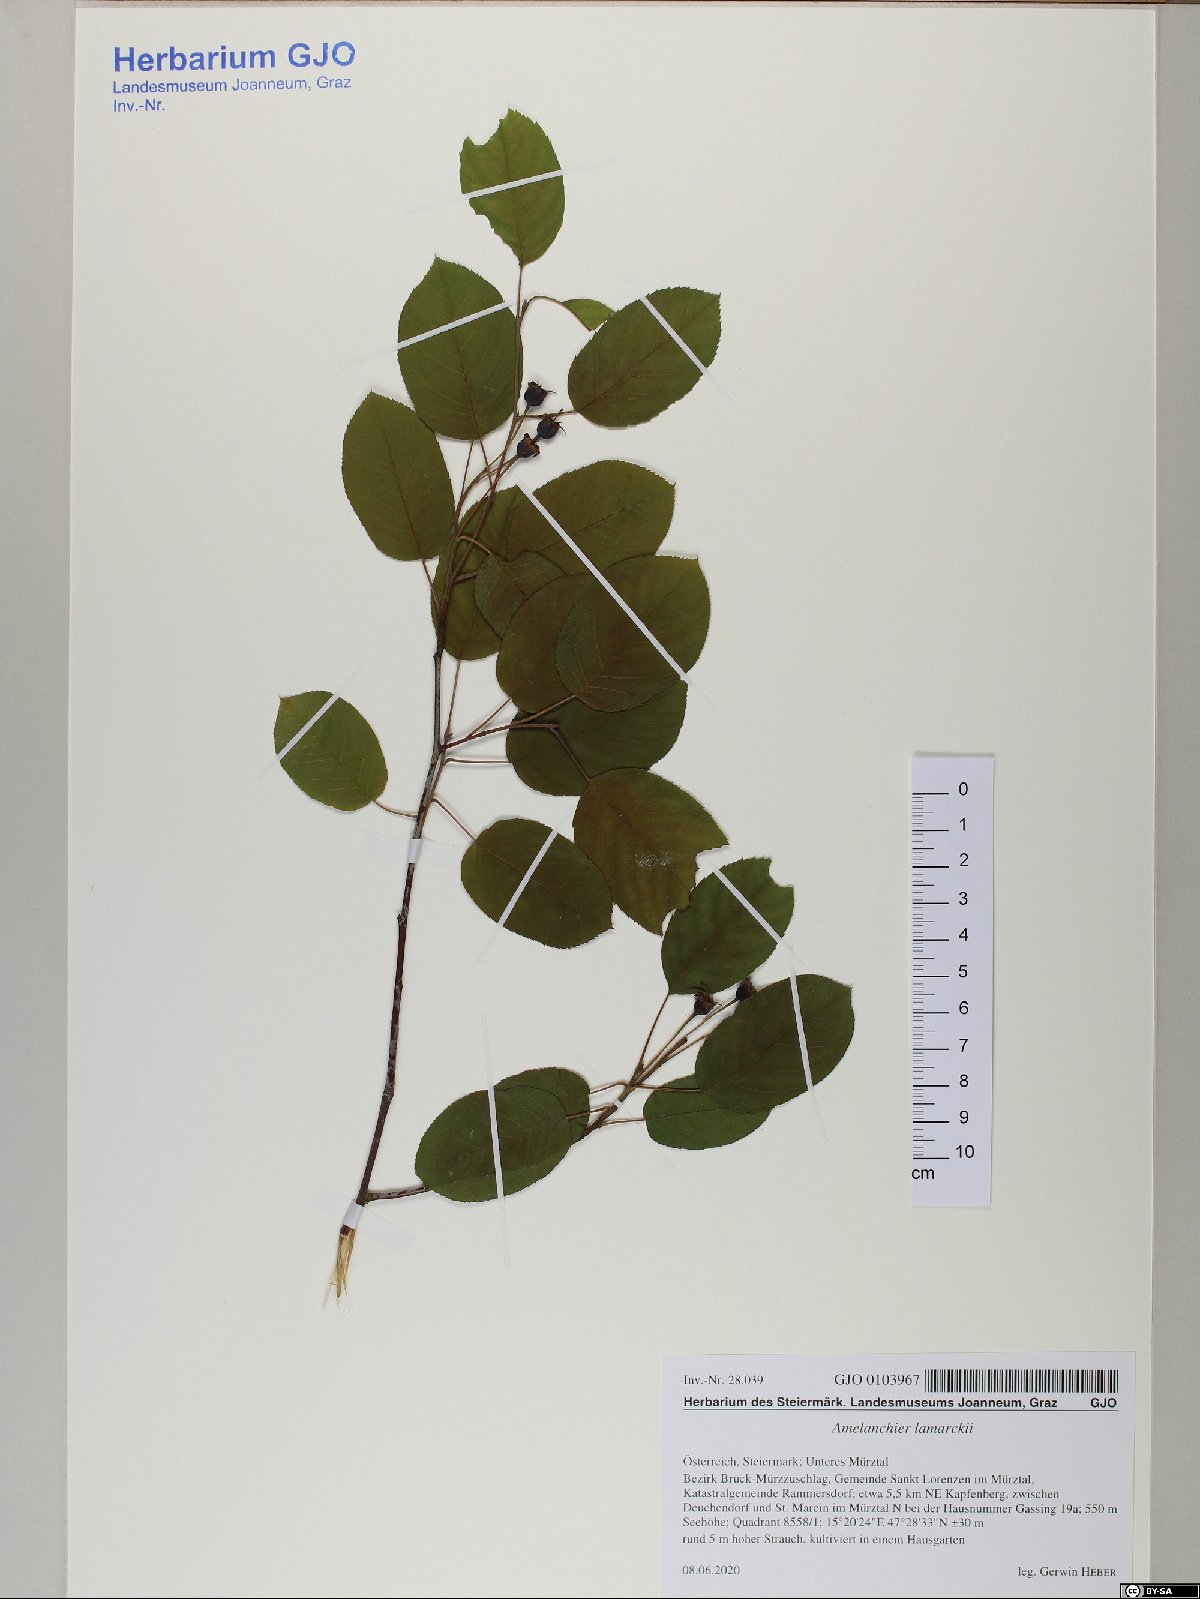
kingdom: Plantae
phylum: Tracheophyta
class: Magnoliopsida
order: Rosales
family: Rosaceae
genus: Amelanchier
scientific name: Amelanchier lamarckii
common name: Juneberry
